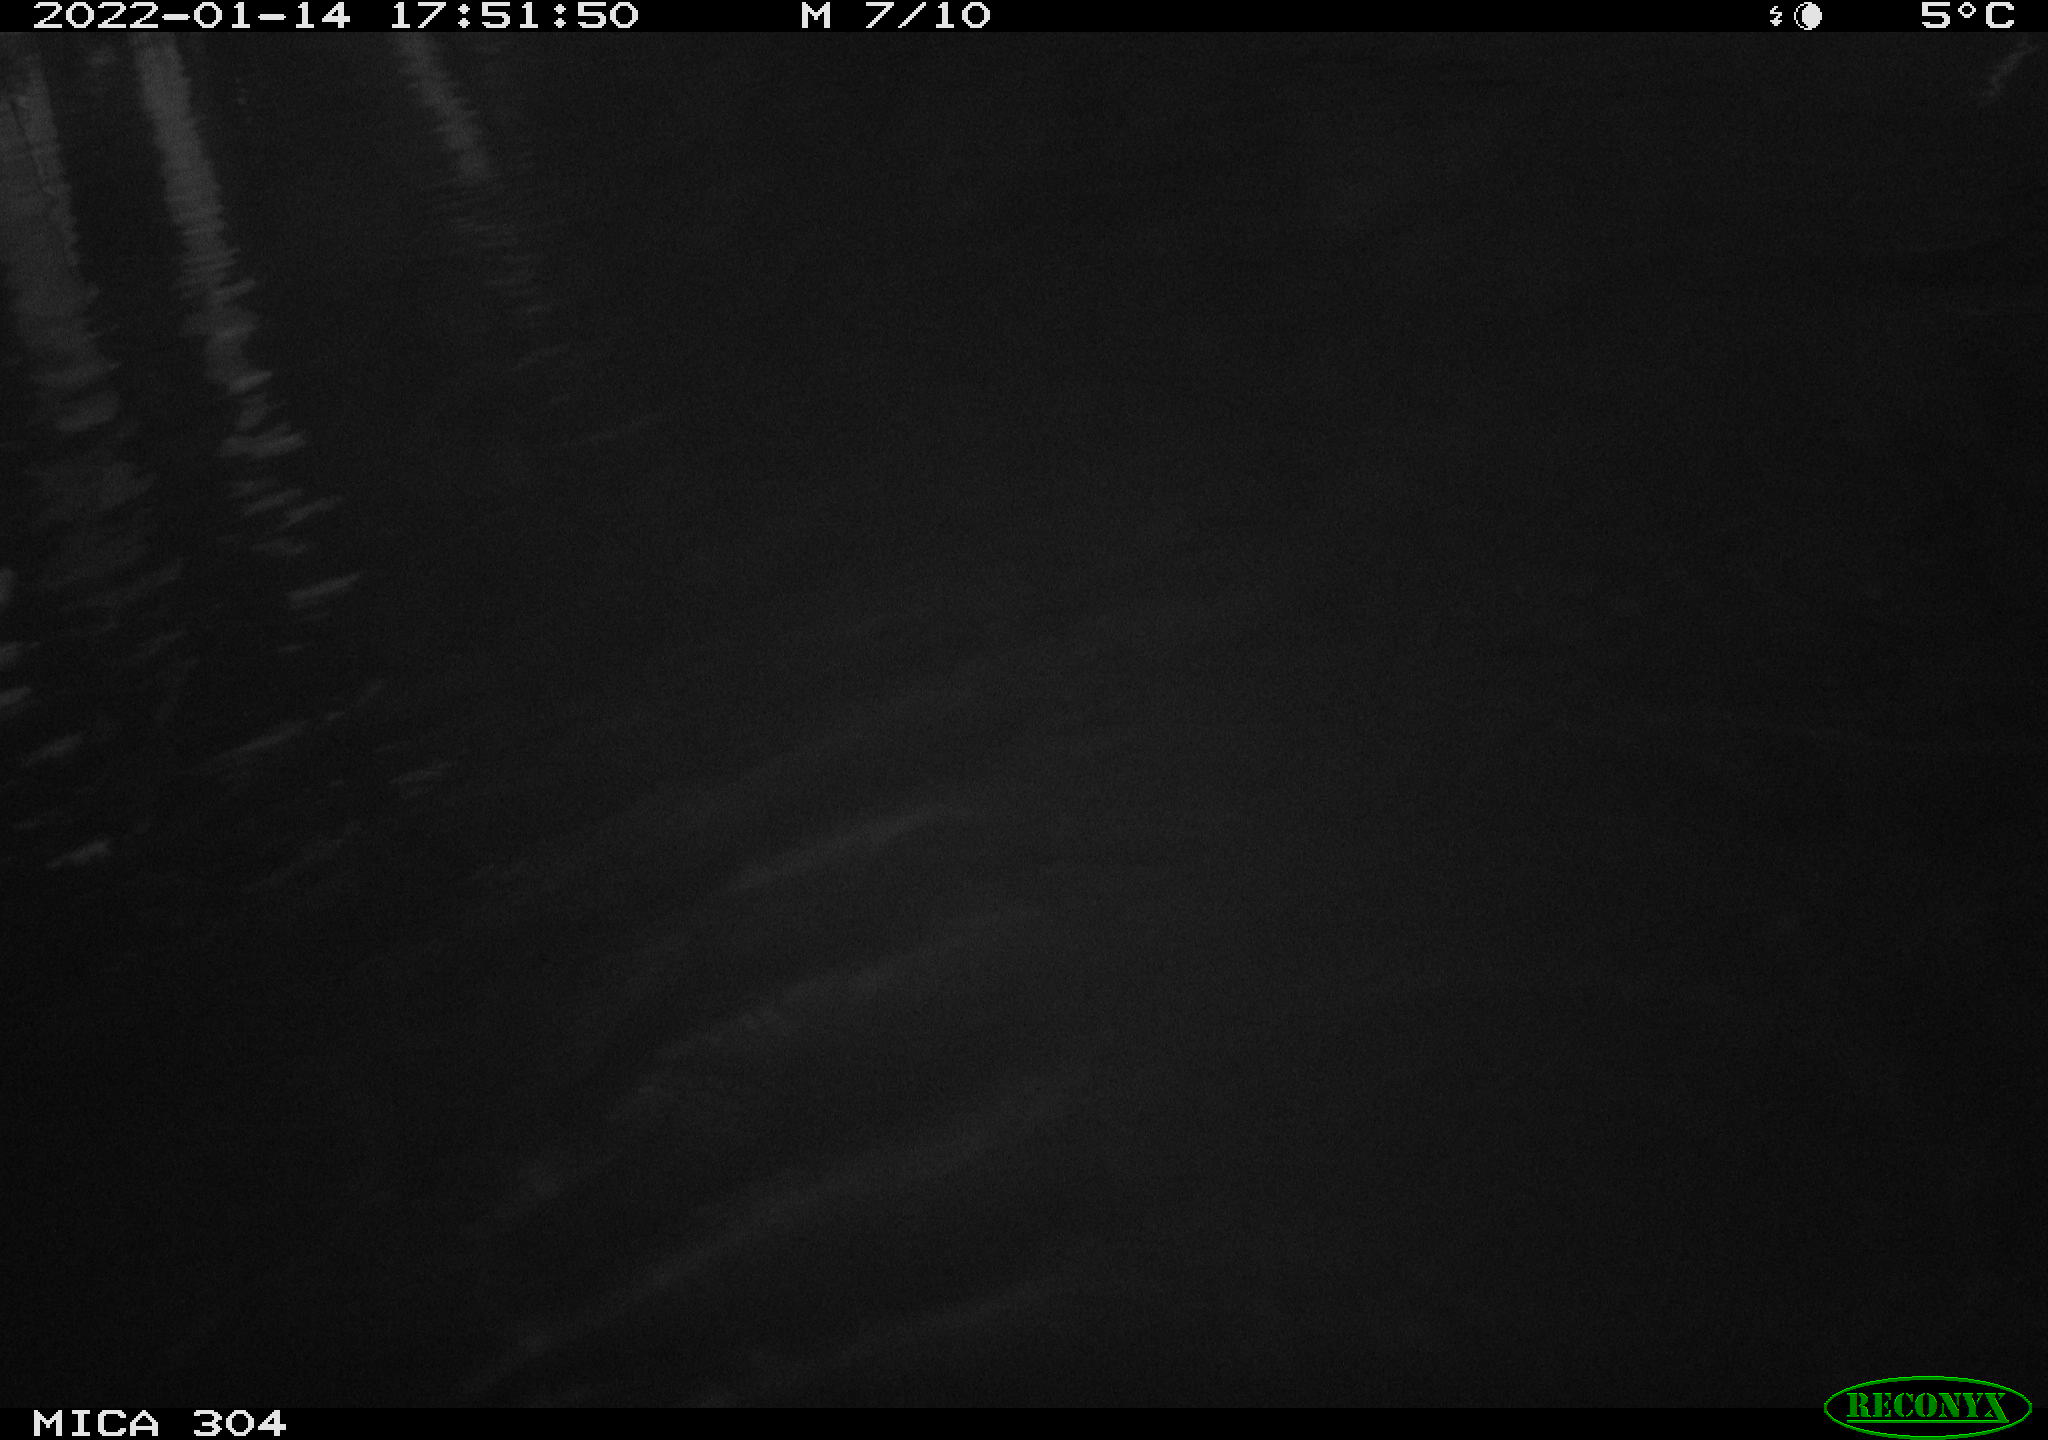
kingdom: Animalia
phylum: Chordata
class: Mammalia
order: Rodentia
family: Cricetidae
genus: Ondatra
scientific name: Ondatra zibethicus
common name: Muskrat
